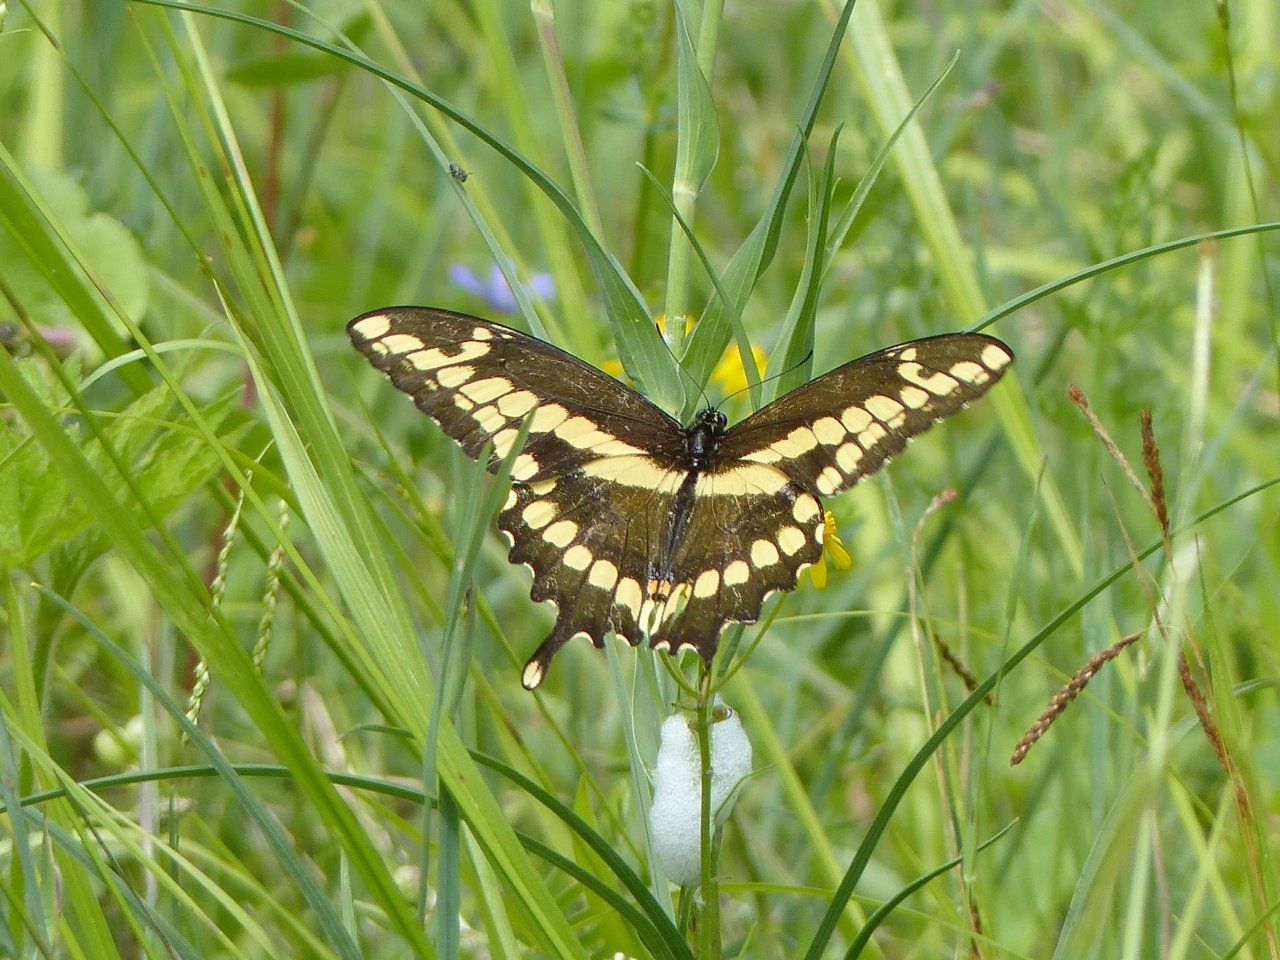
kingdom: Animalia
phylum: Arthropoda
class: Insecta
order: Lepidoptera
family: Papilionidae
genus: Papilio
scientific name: Papilio cresphontes
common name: Eastern Giant Swallowtail
